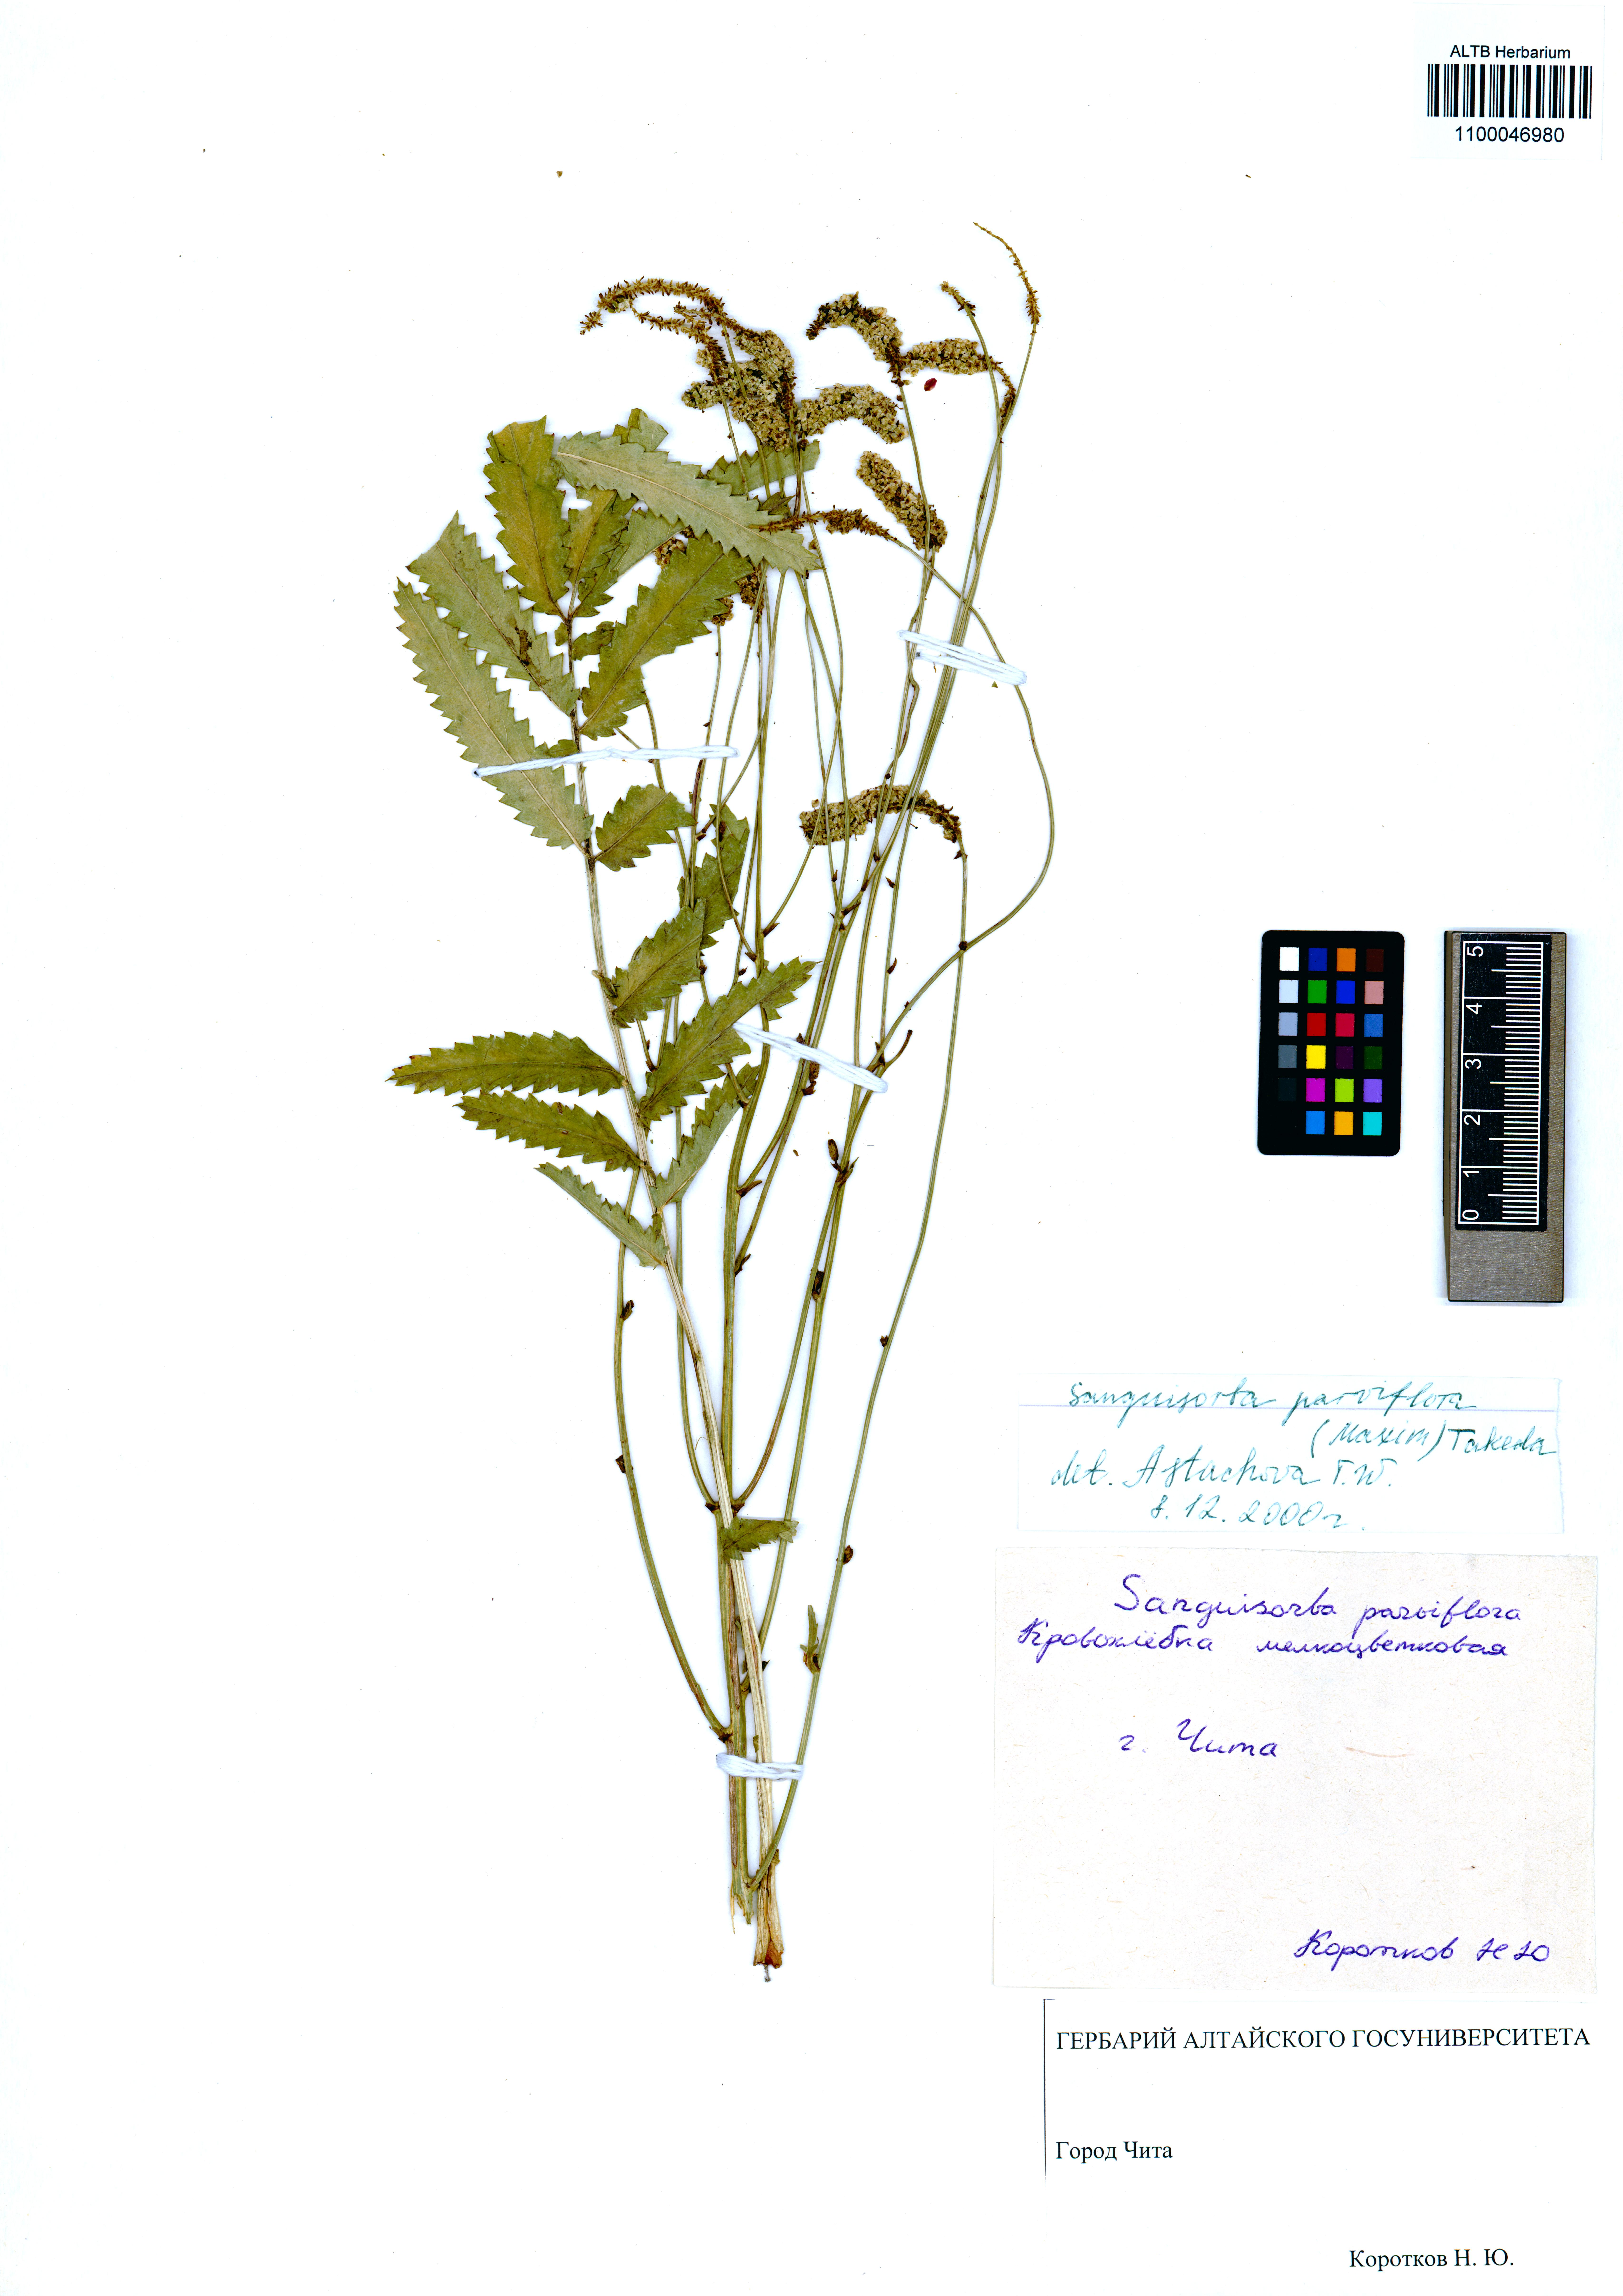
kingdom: Plantae
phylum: Tracheophyta
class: Magnoliopsida
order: Rosales
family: Rosaceae
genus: Poterium
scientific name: Poterium tenuifolium
